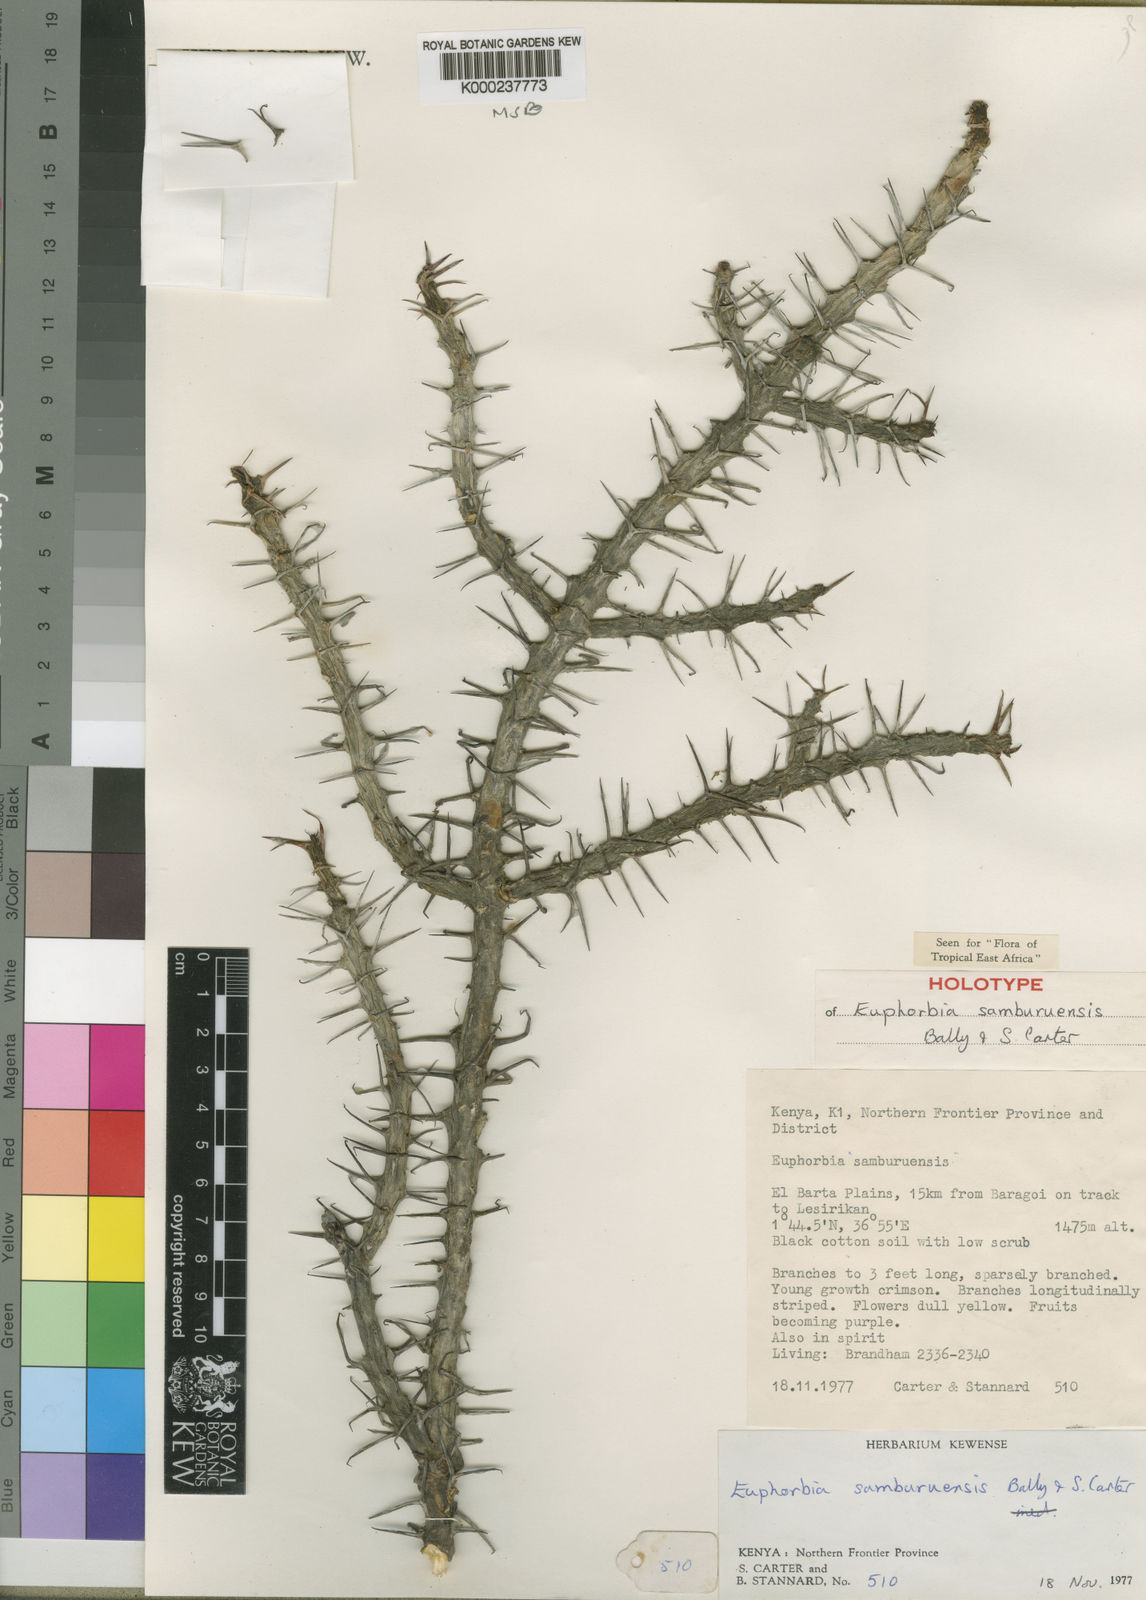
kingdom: Plantae
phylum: Tracheophyta
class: Magnoliopsida
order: Malpighiales
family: Euphorbiaceae
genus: Euphorbia
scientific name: Euphorbia samburuensis
